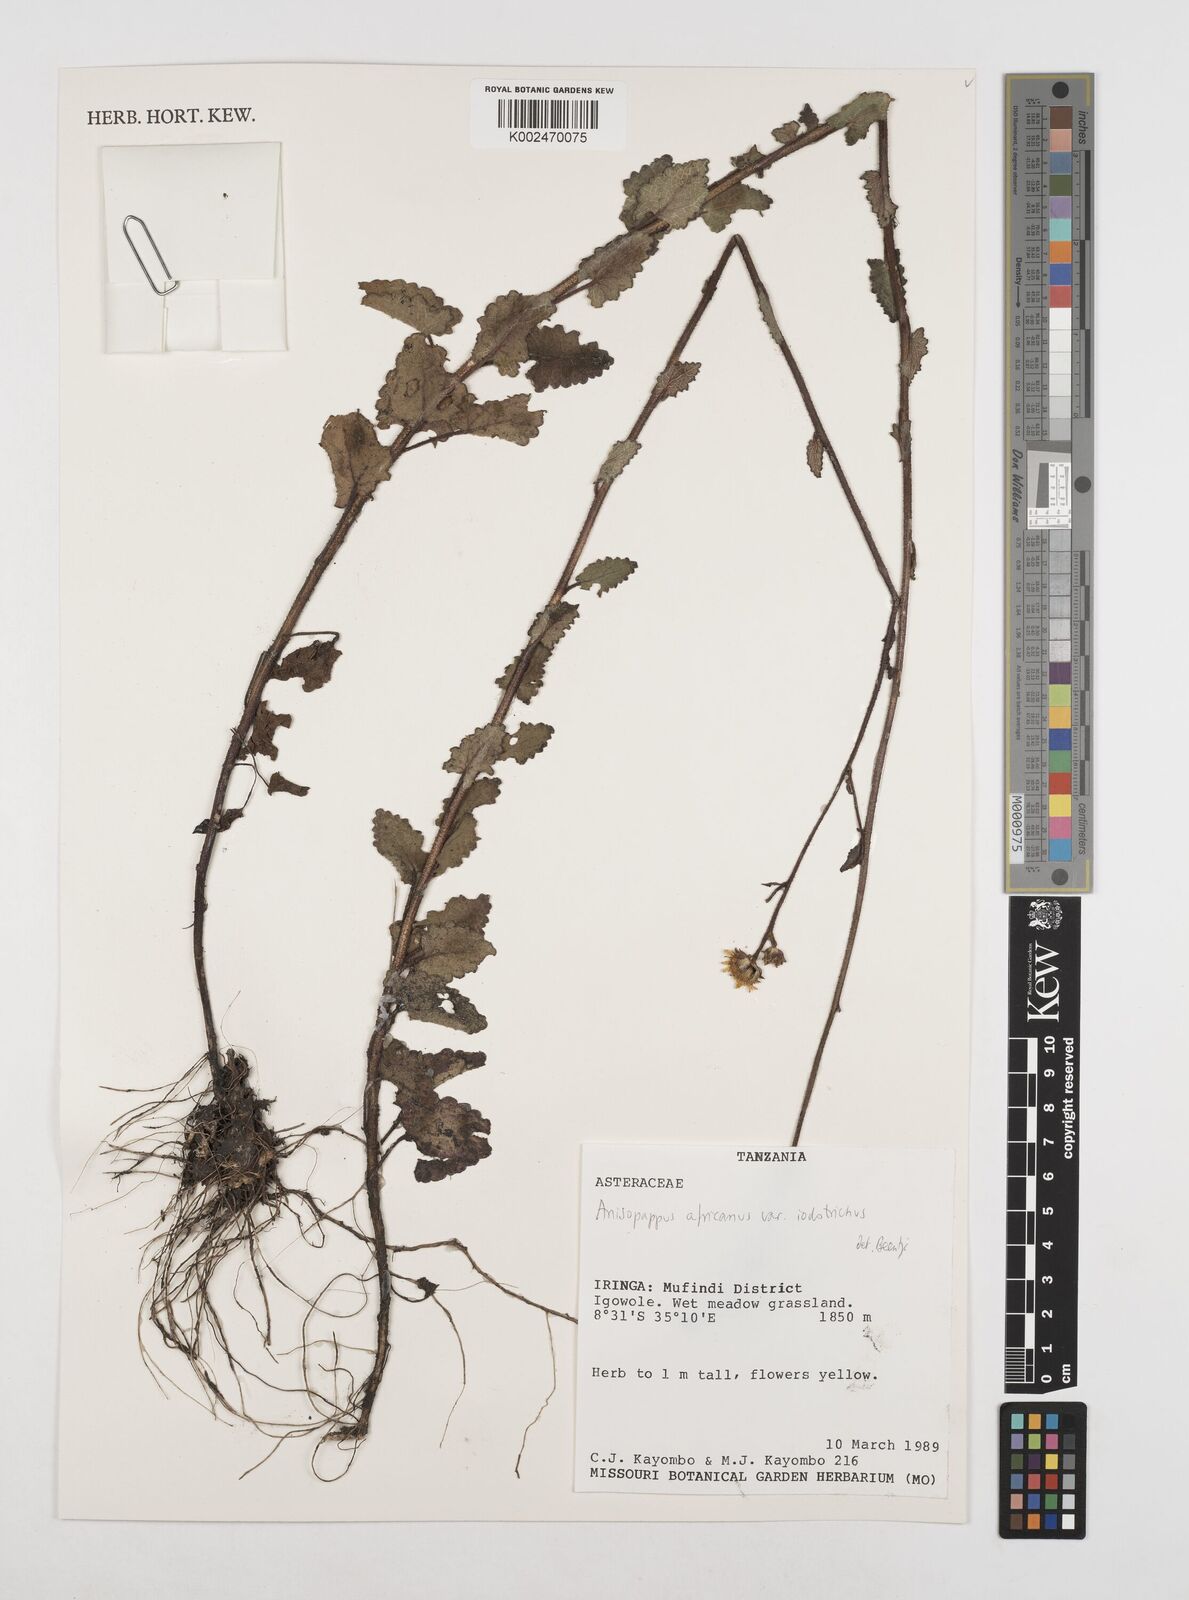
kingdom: Plantae
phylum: Tracheophyta
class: Magnoliopsida
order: Asterales
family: Asteraceae
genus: Anisopappus
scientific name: Anisopappus buchwaldii
